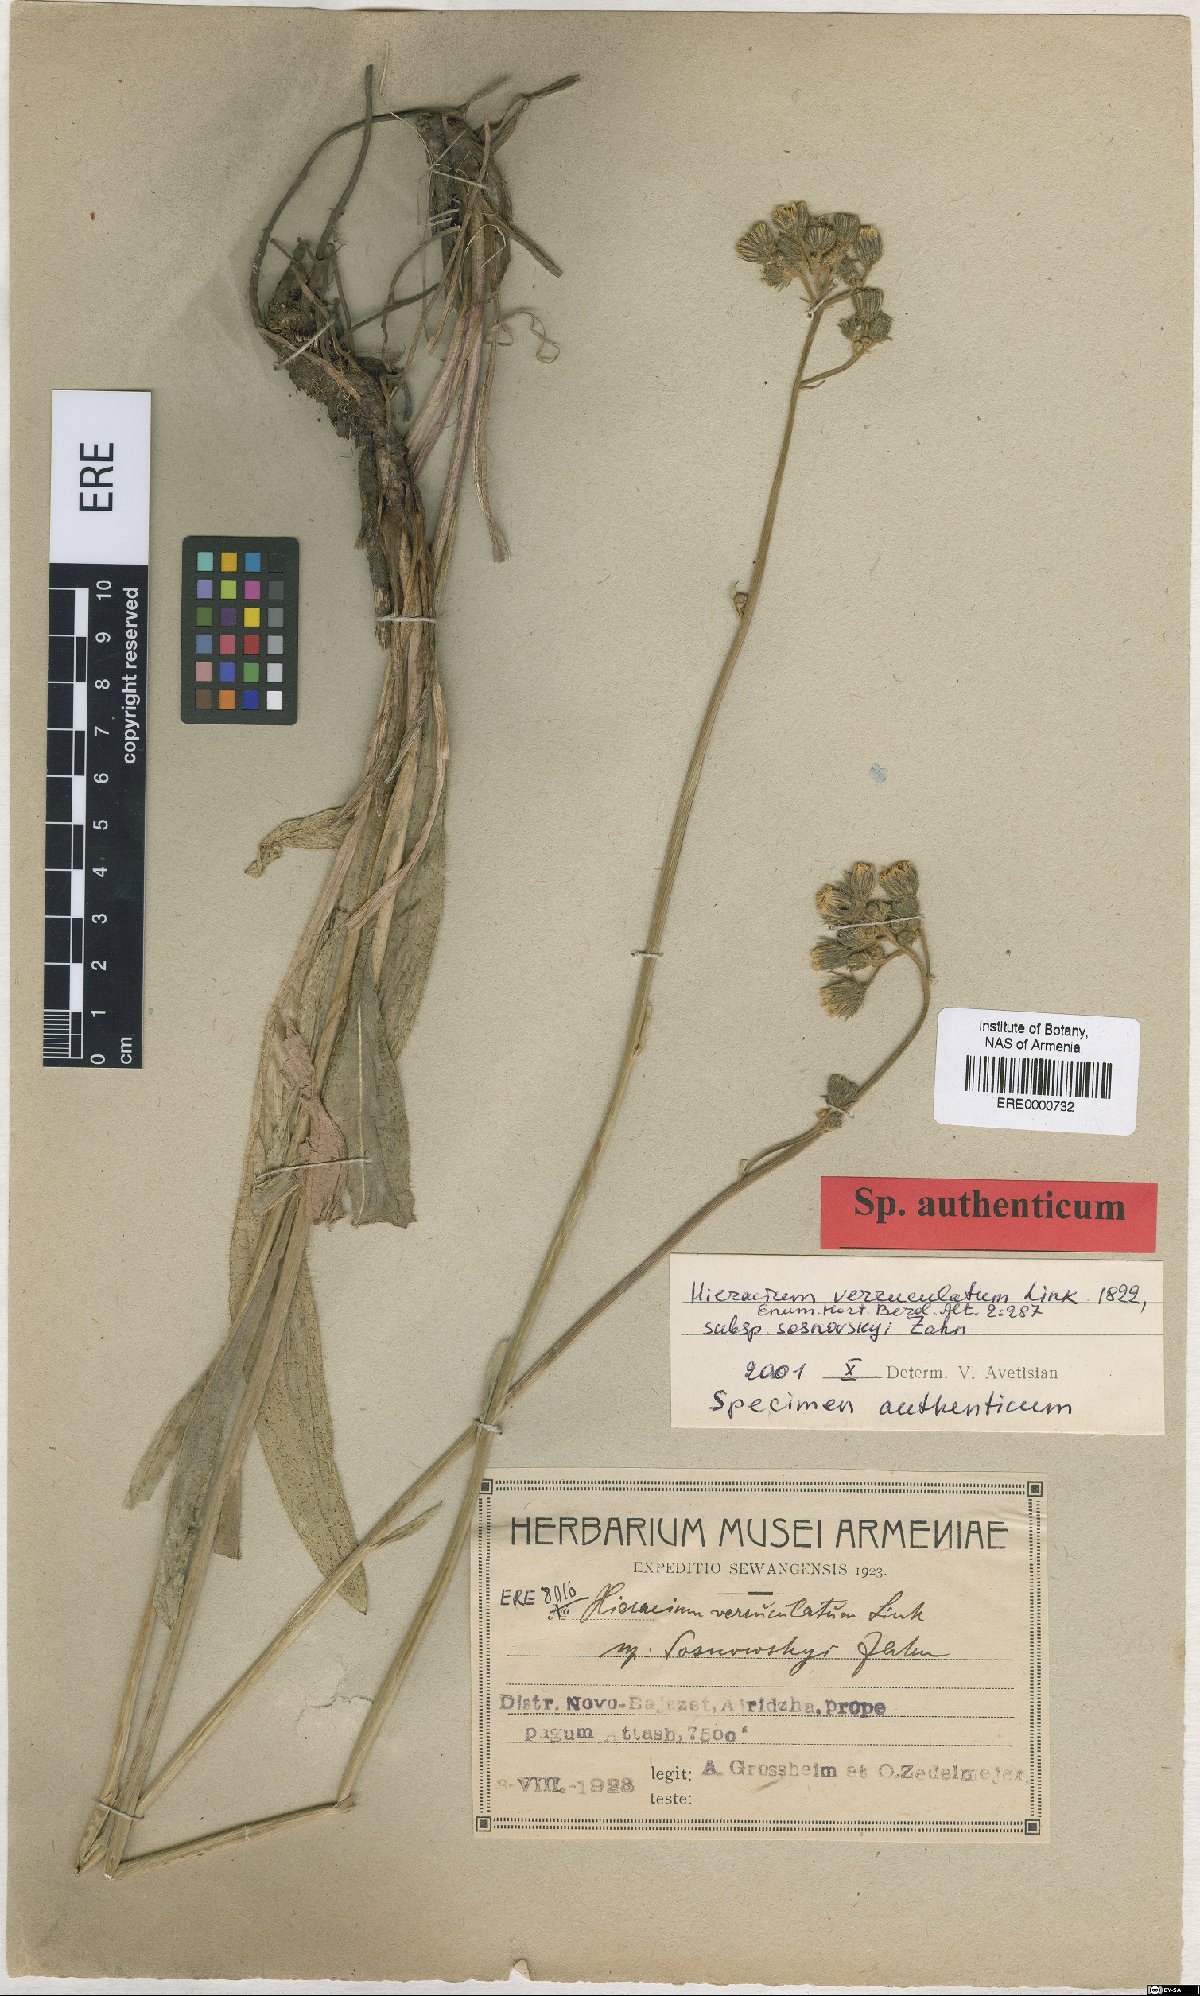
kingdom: Plantae
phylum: Tracheophyta
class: Magnoliopsida
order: Asterales
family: Asteraceae
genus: Pilosella
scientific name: Pilosella verruculata
